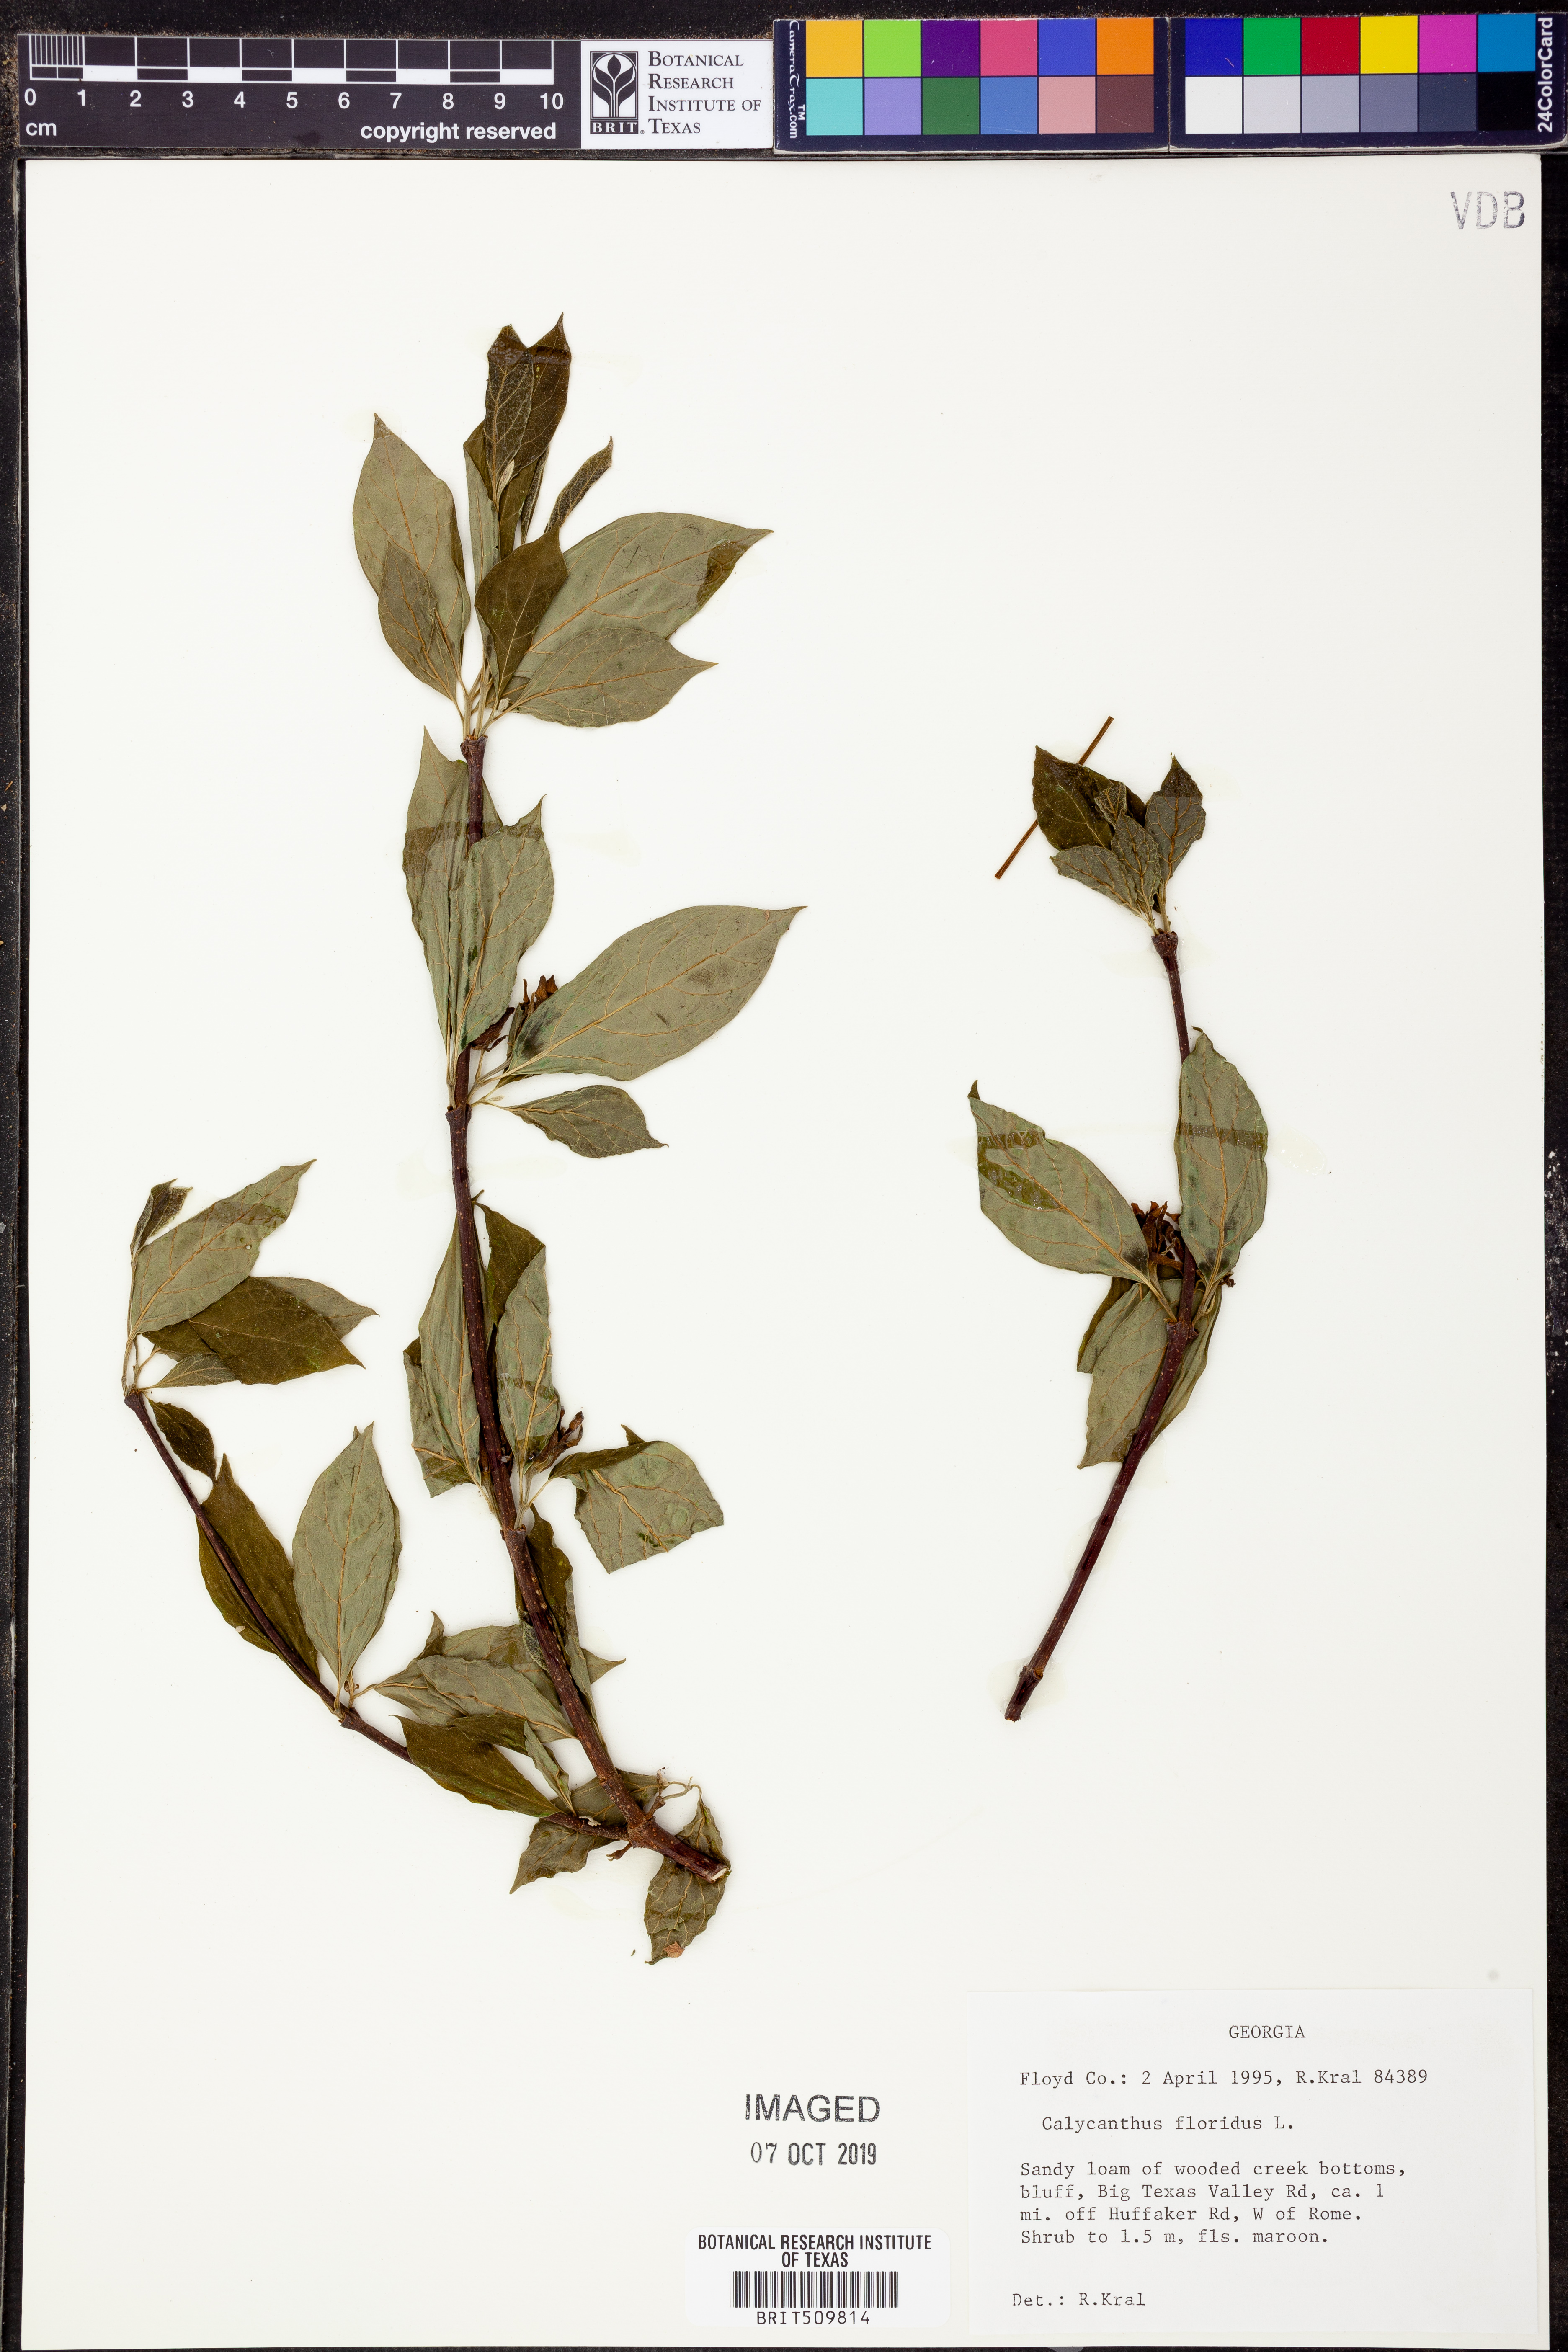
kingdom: Plantae
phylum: Tracheophyta
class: Magnoliopsida
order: Laurales
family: Calycanthaceae
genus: Calycanthus
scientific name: Calycanthus floridus
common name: Carolina-allspice
